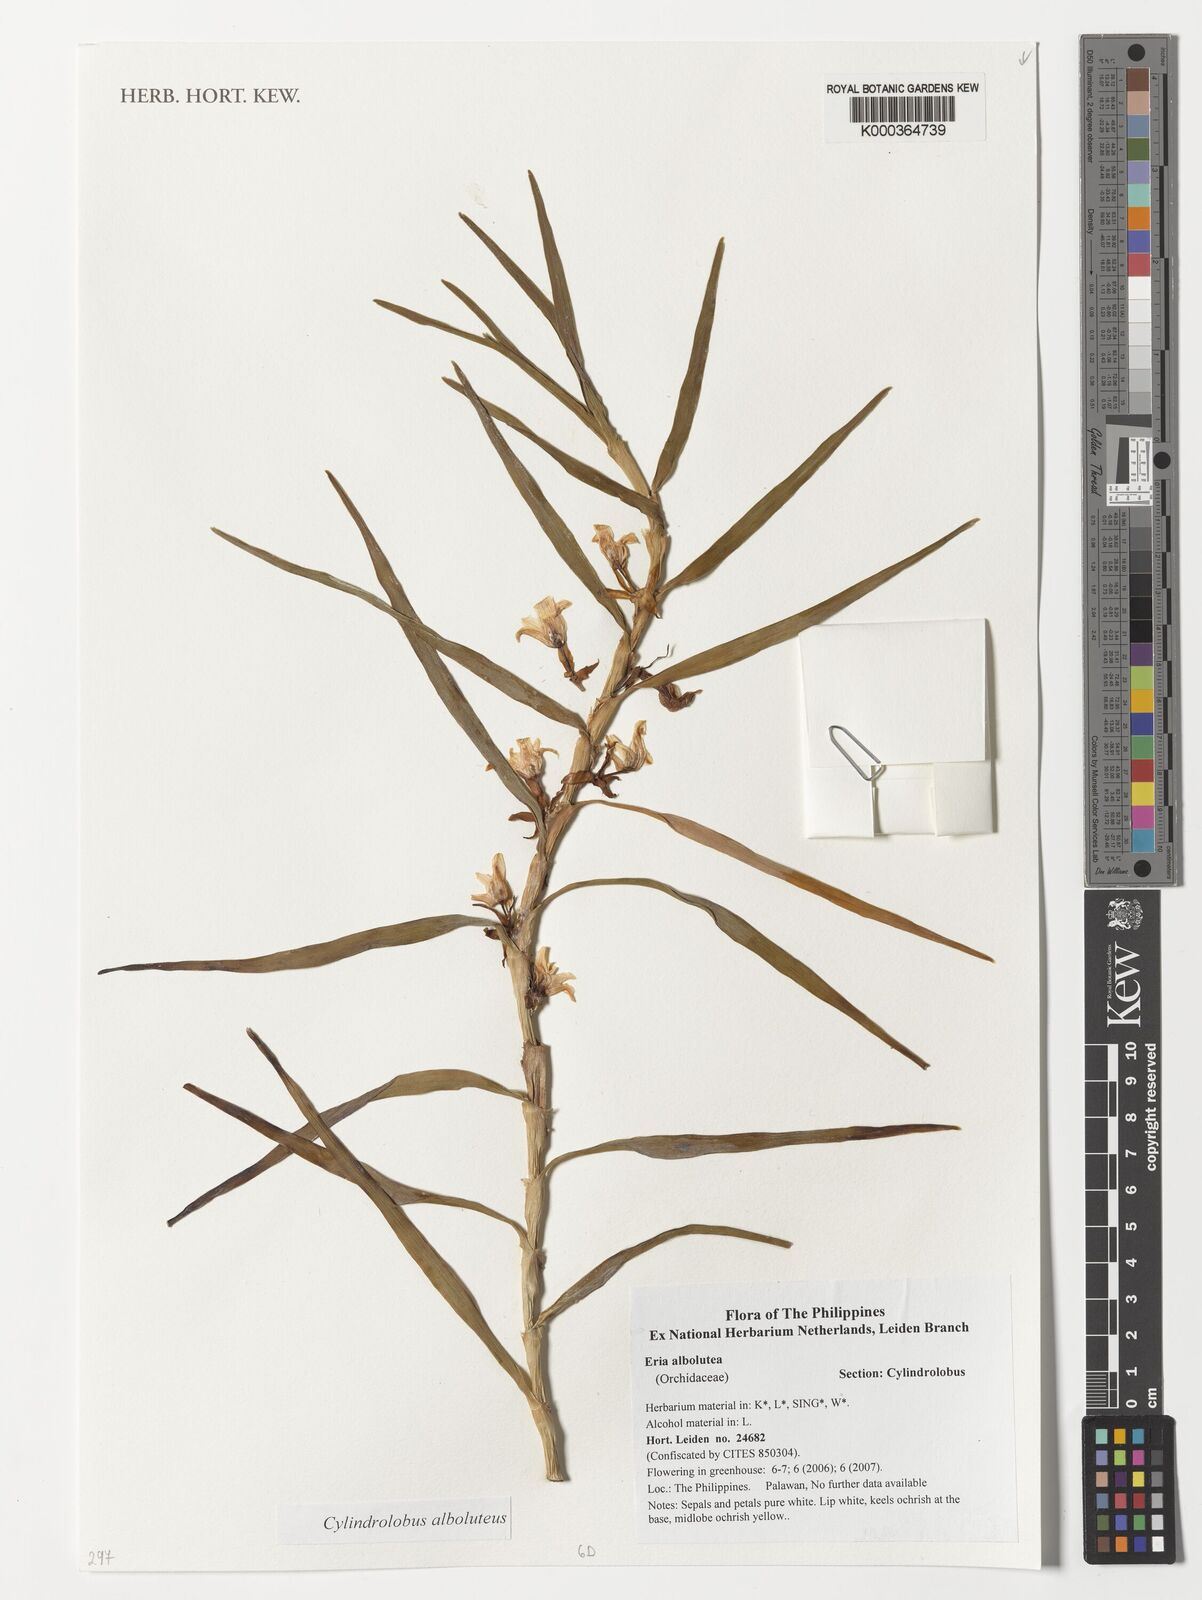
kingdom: Plantae
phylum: Tracheophyta
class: Liliopsida
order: Asparagales
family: Orchidaceae
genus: Cylindrolobus
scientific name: Cylindrolobus alboluteus
